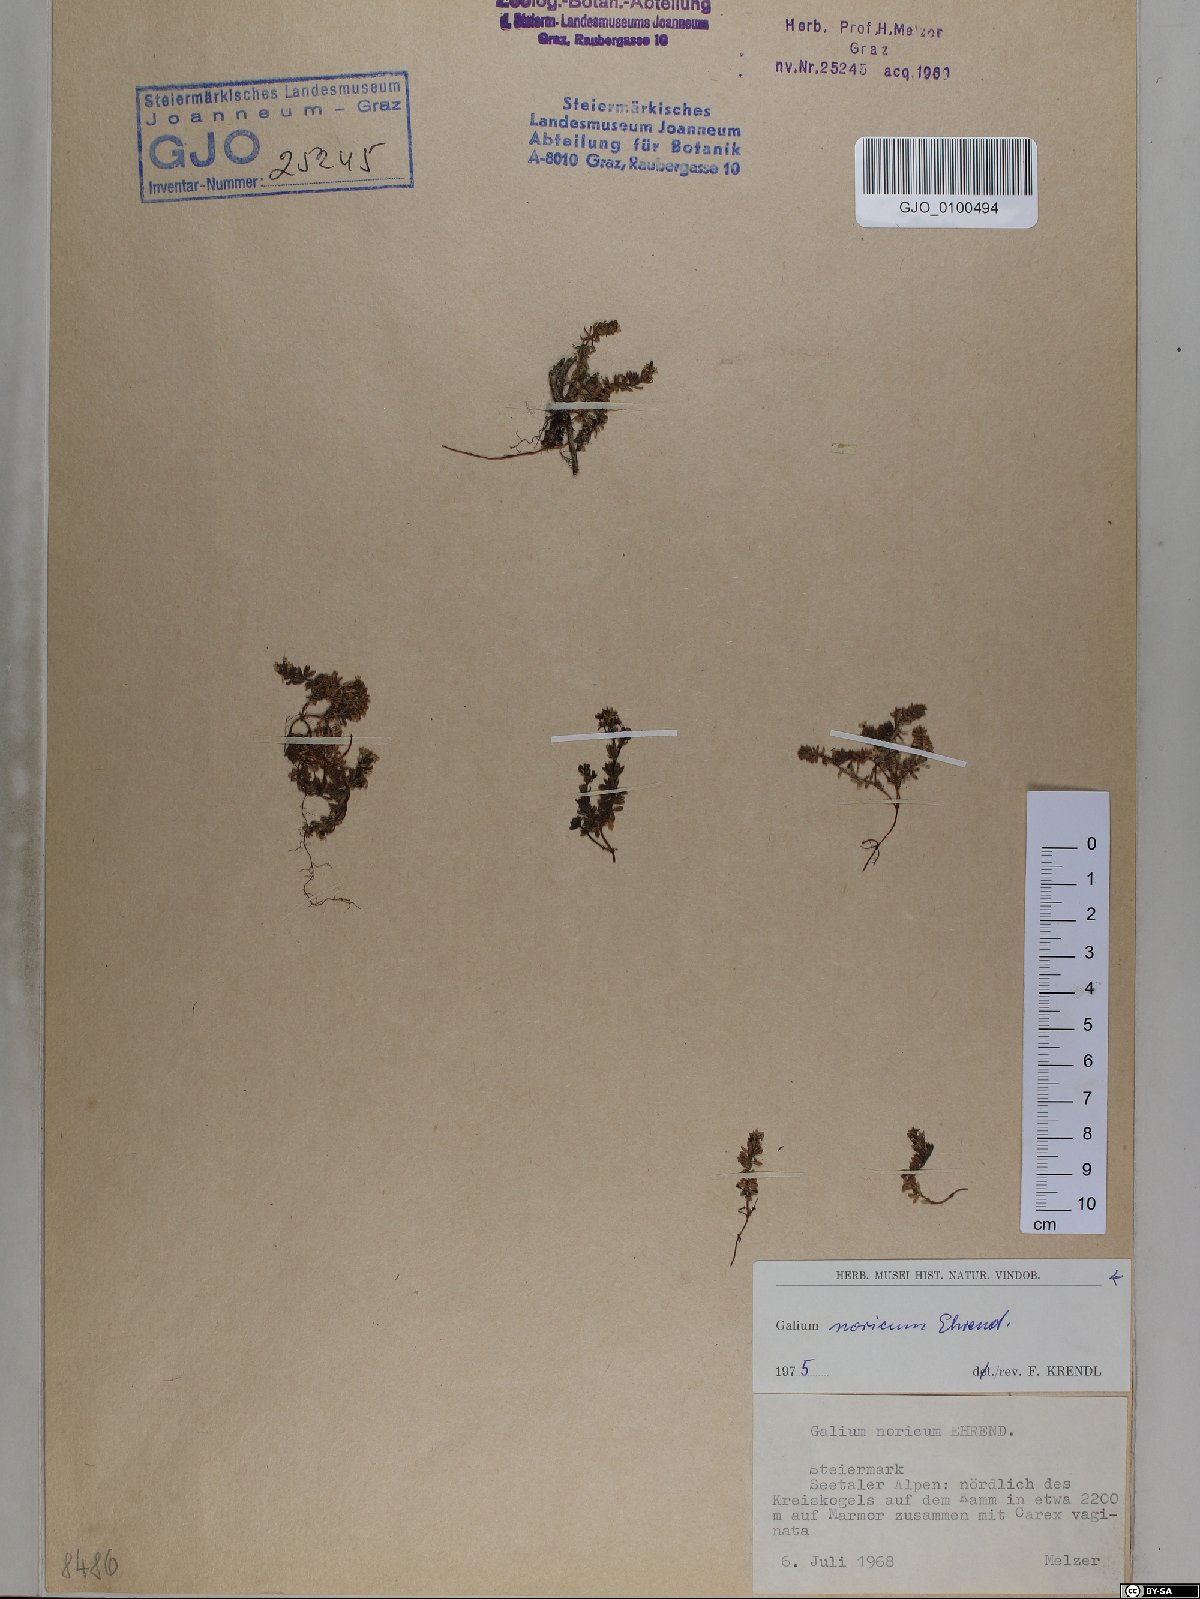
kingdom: Plantae
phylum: Tracheophyta
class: Magnoliopsida
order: Gentianales
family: Rubiaceae
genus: Galium
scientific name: Galium noricum
